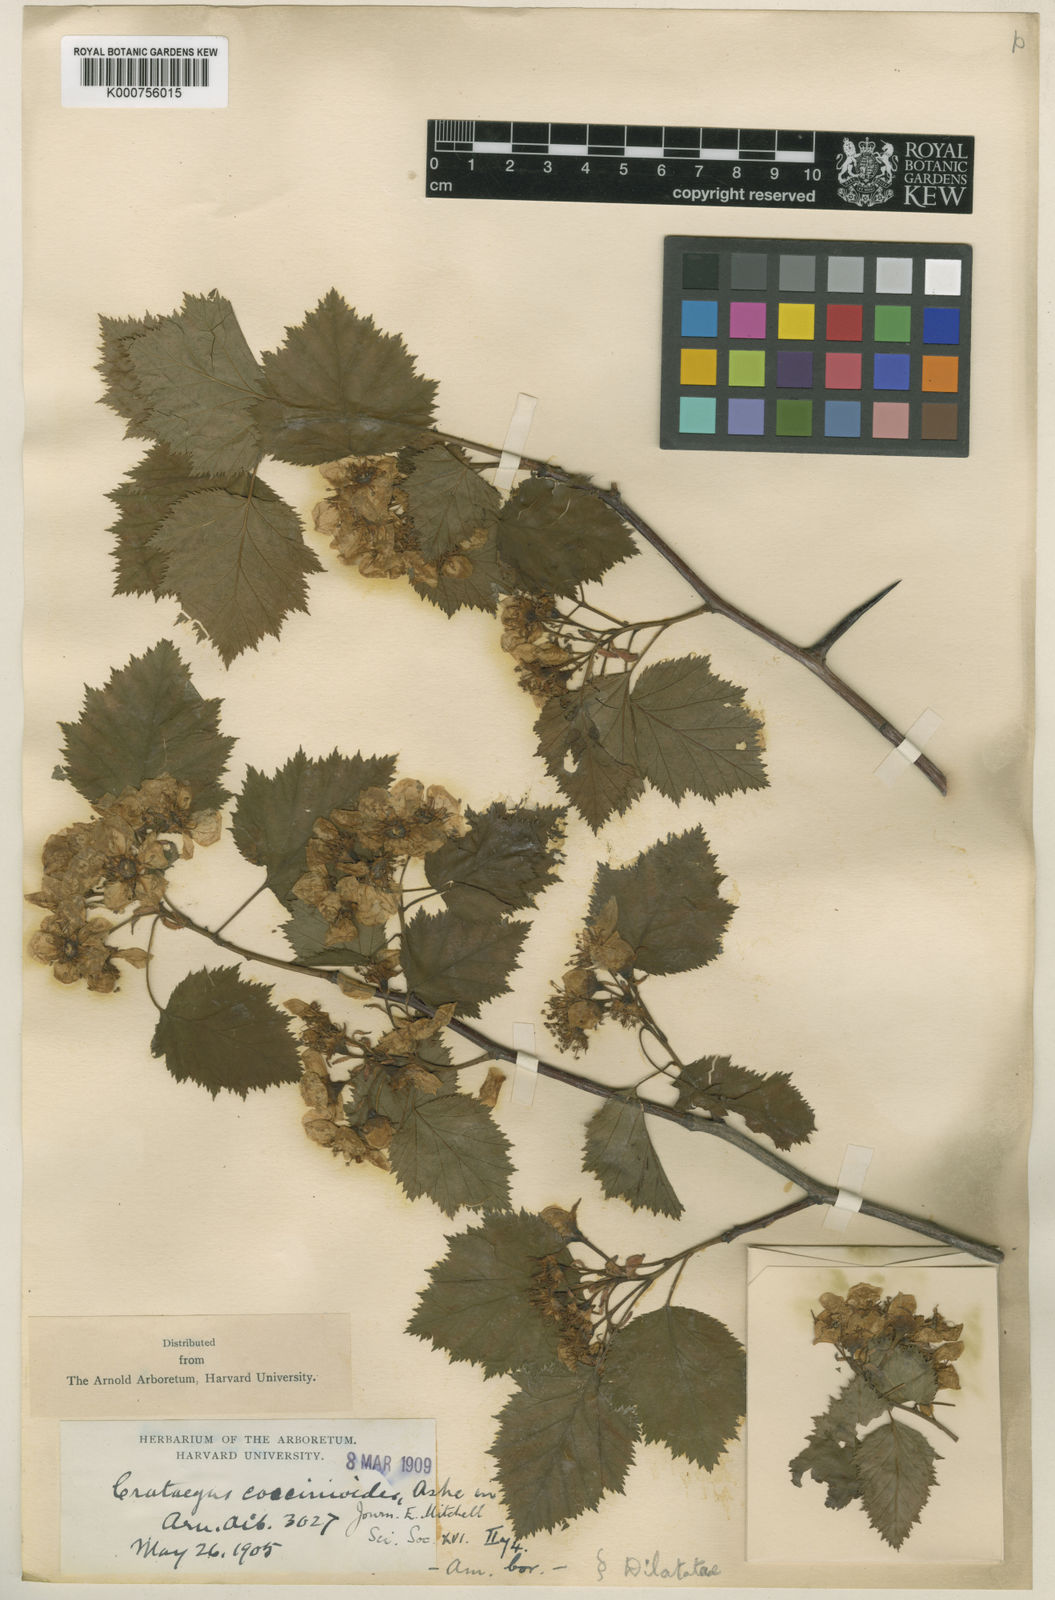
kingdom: Plantae
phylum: Tracheophyta
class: Magnoliopsida
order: Rosales
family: Rosaceae
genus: Crataegus
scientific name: Crataegus coccinioides
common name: Large-flowered cockspurthorn
